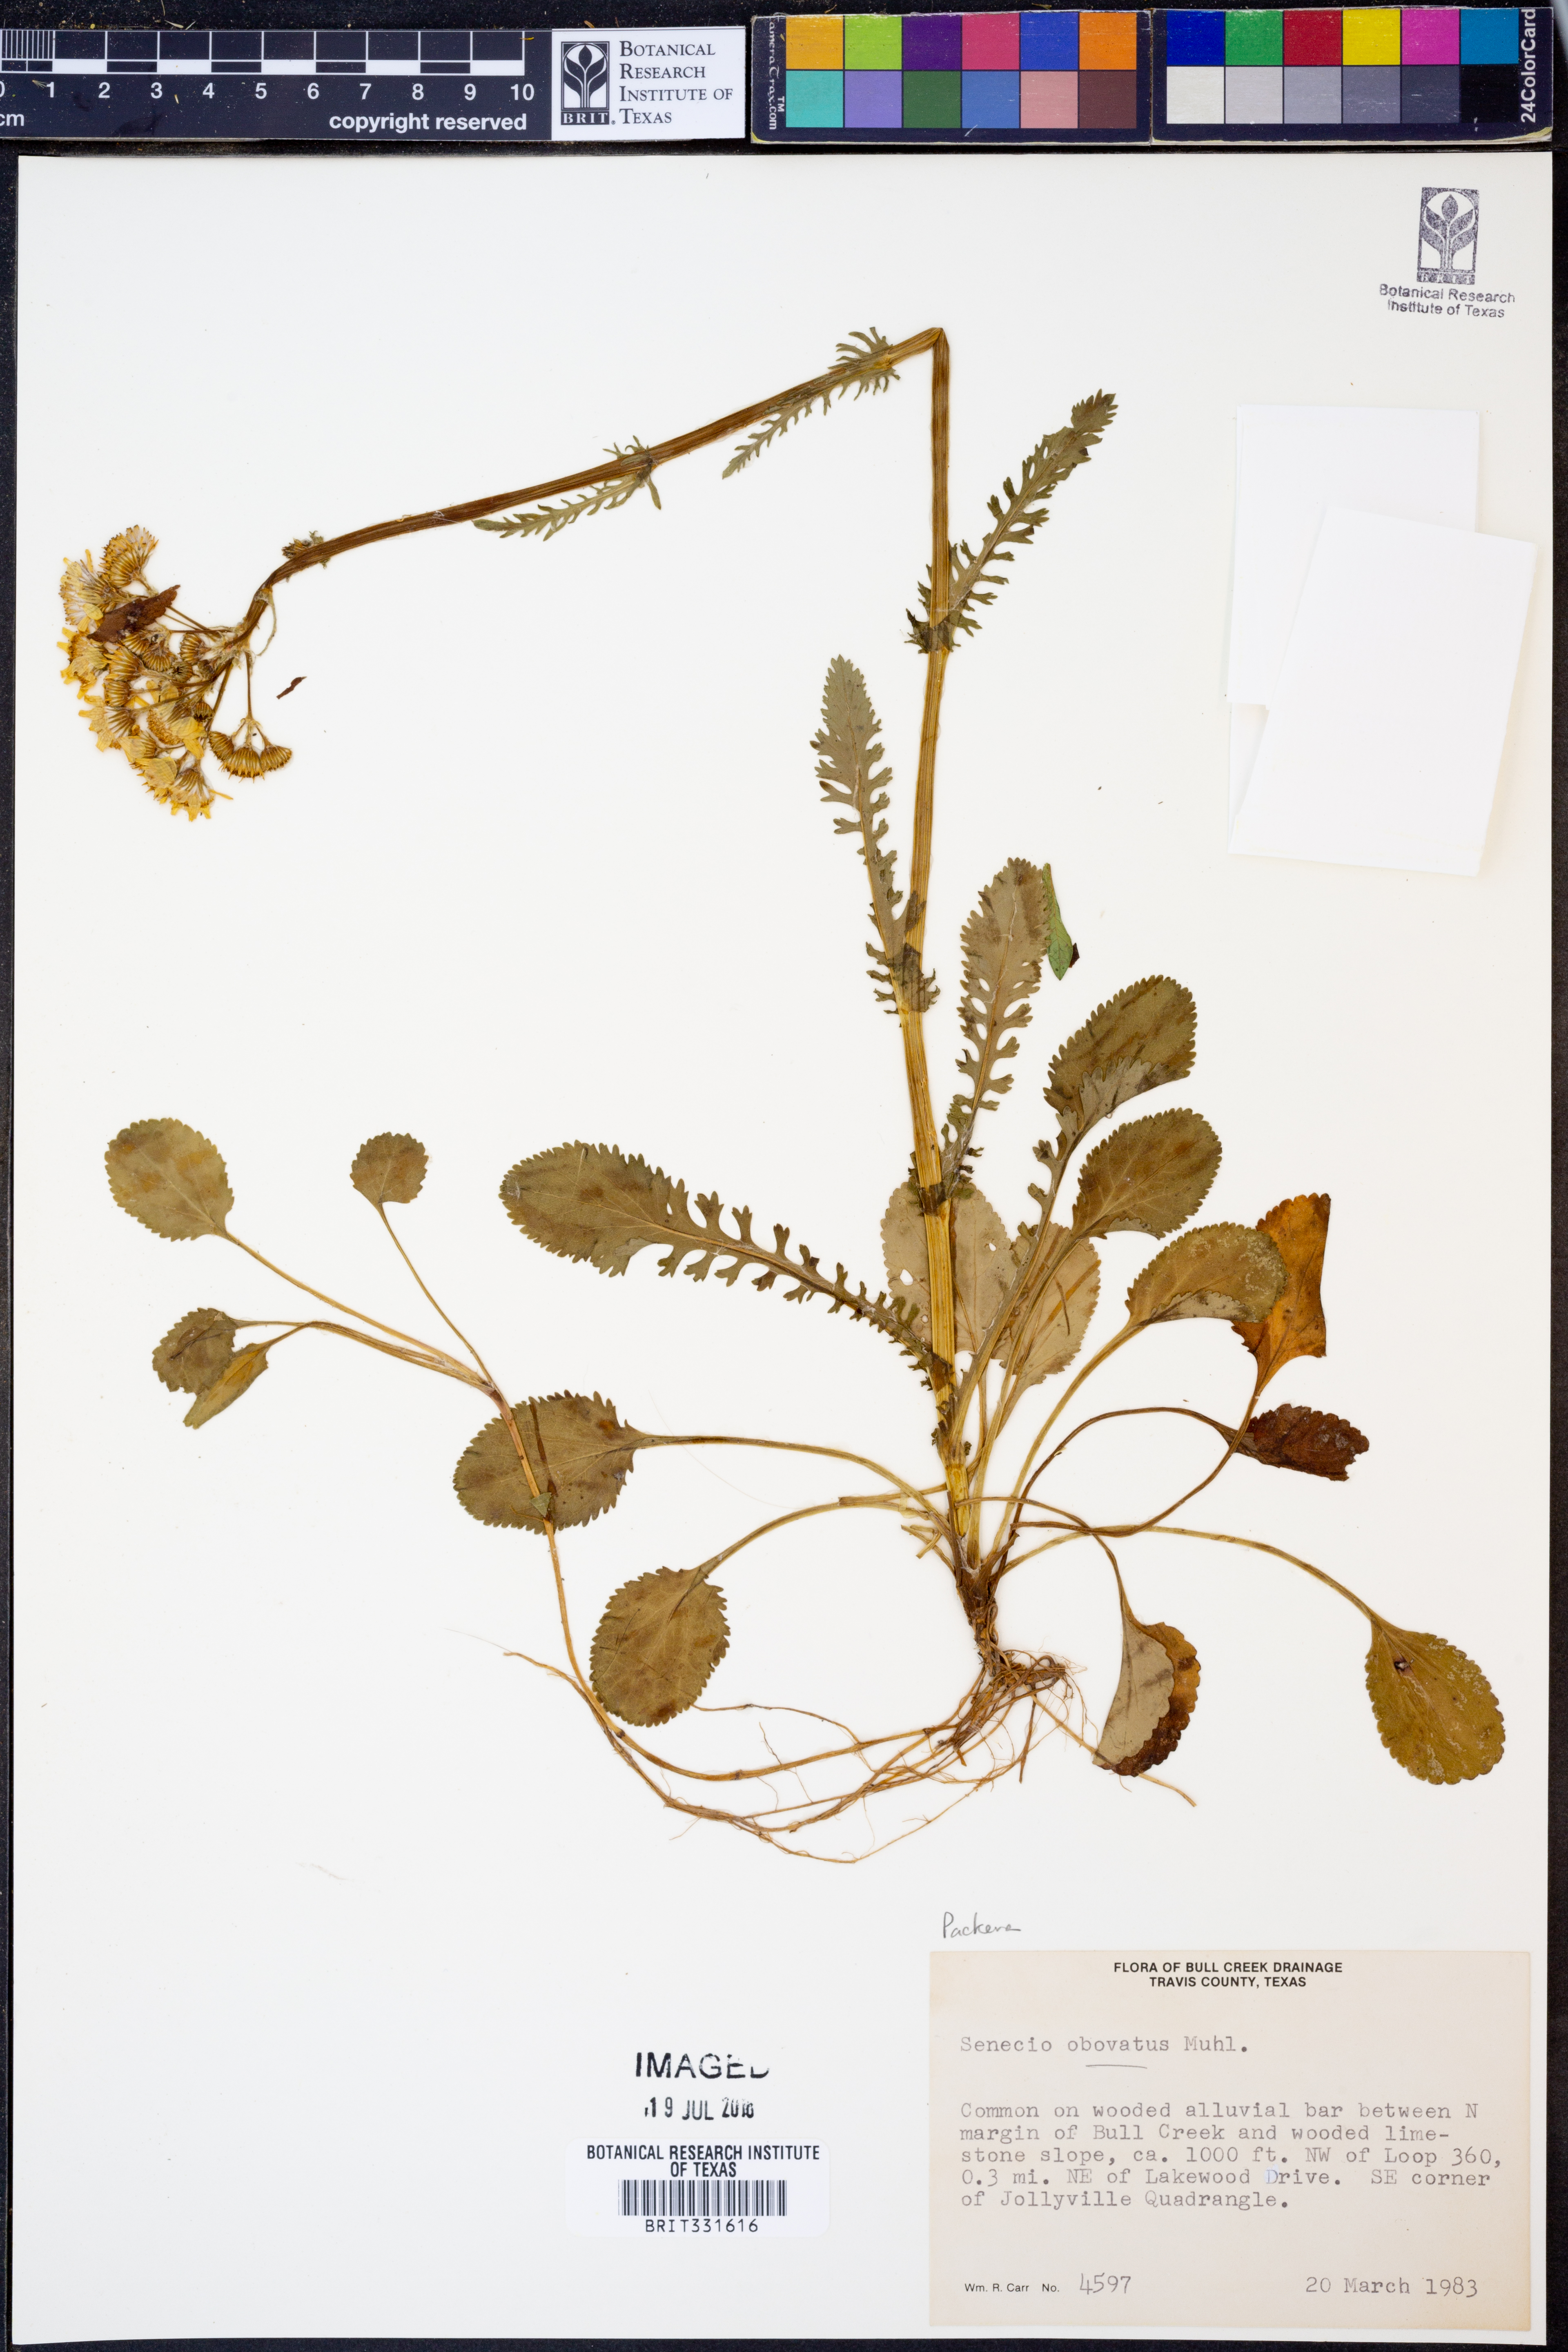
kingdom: Plantae
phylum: Tracheophyta
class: Magnoliopsida
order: Asterales
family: Asteraceae
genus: Packera
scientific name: Packera obovata
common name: Round-leaf ragwort
